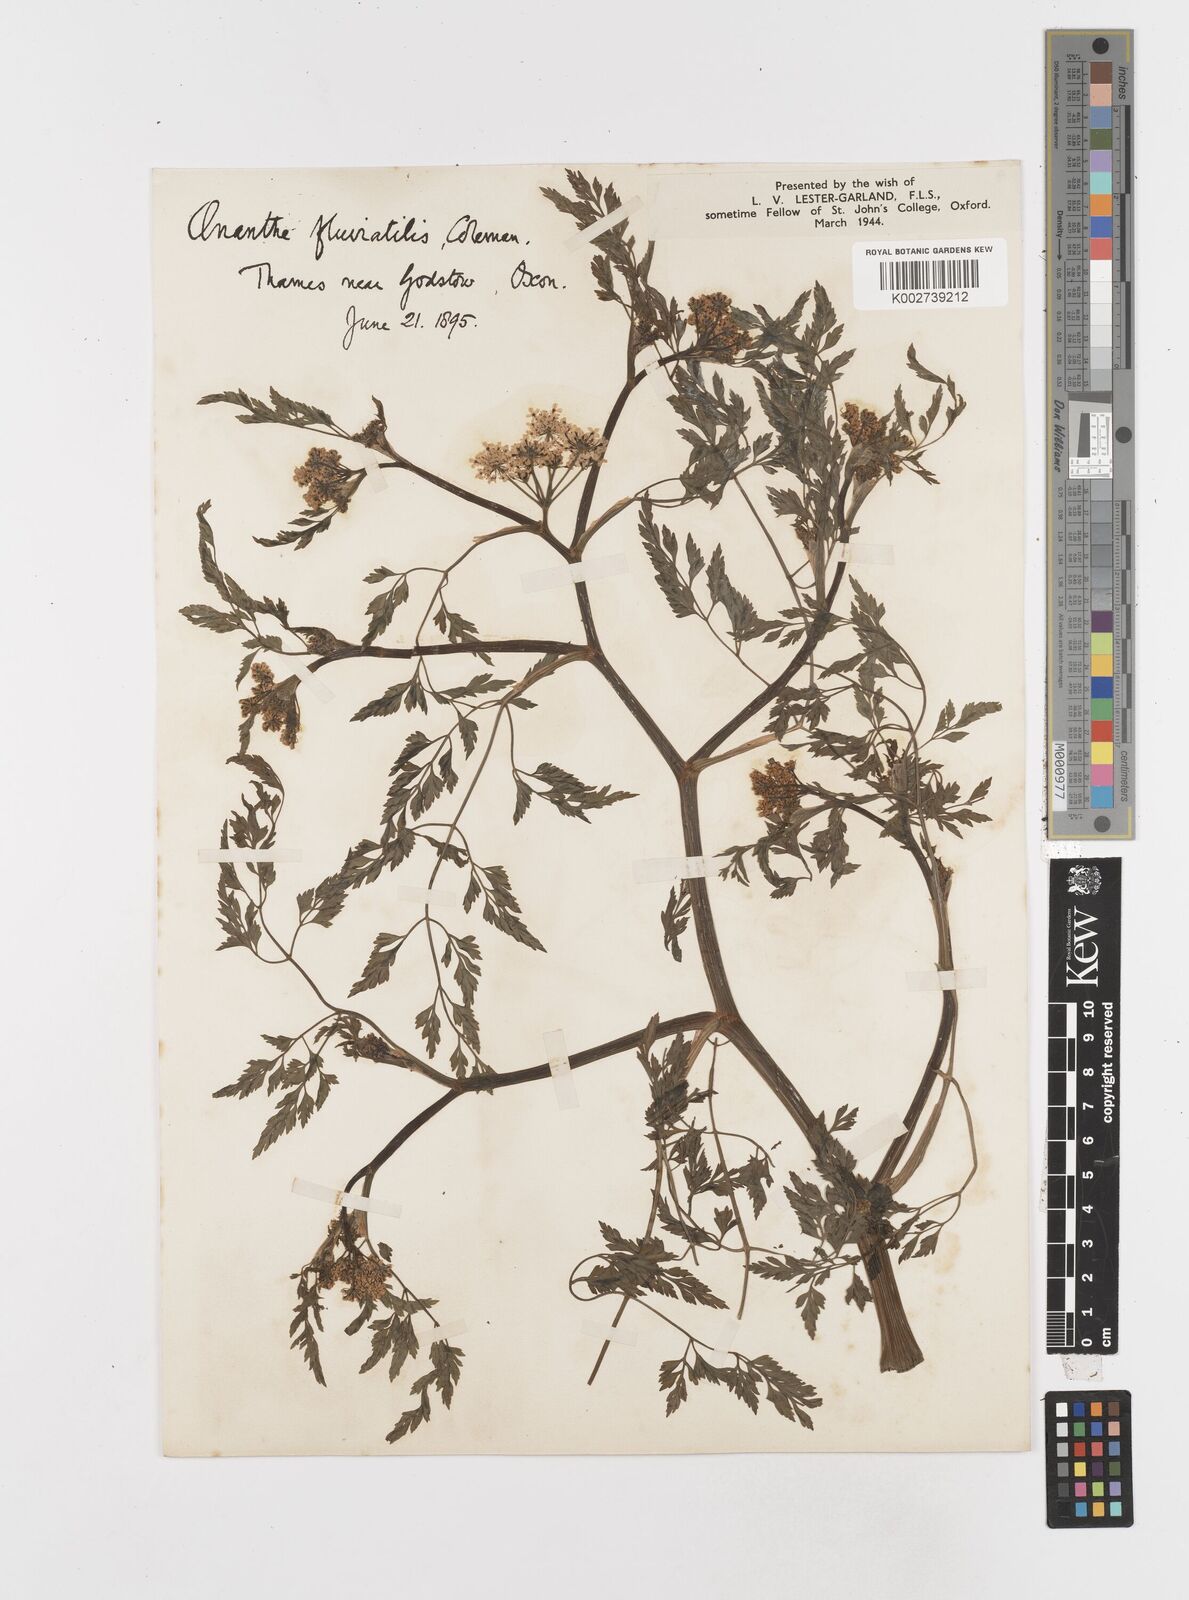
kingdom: Plantae
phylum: Tracheophyta
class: Magnoliopsida
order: Apiales
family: Apiaceae
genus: Oenanthe
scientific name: Oenanthe fluviatilis
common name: River water-dropwort
